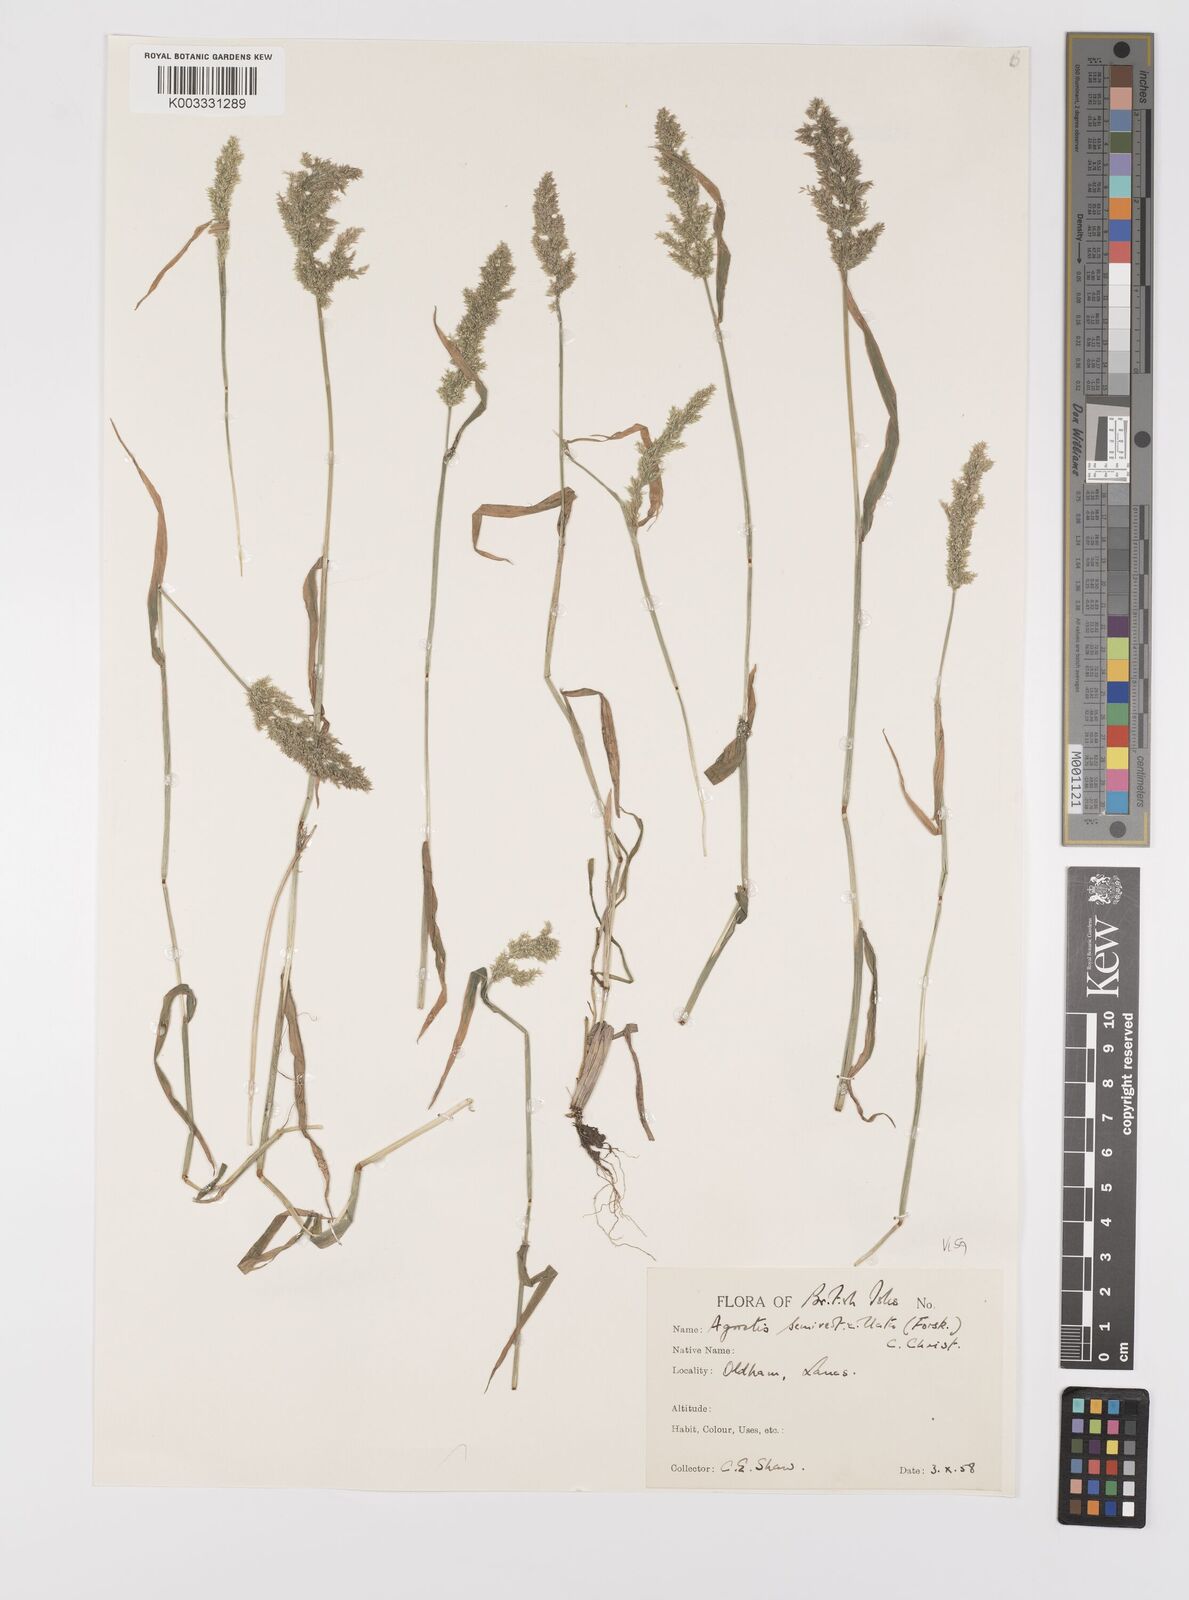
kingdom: Plantae
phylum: Tracheophyta
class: Liliopsida
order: Poales
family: Poaceae
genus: Polypogon
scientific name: Polypogon viridis
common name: Water bent
